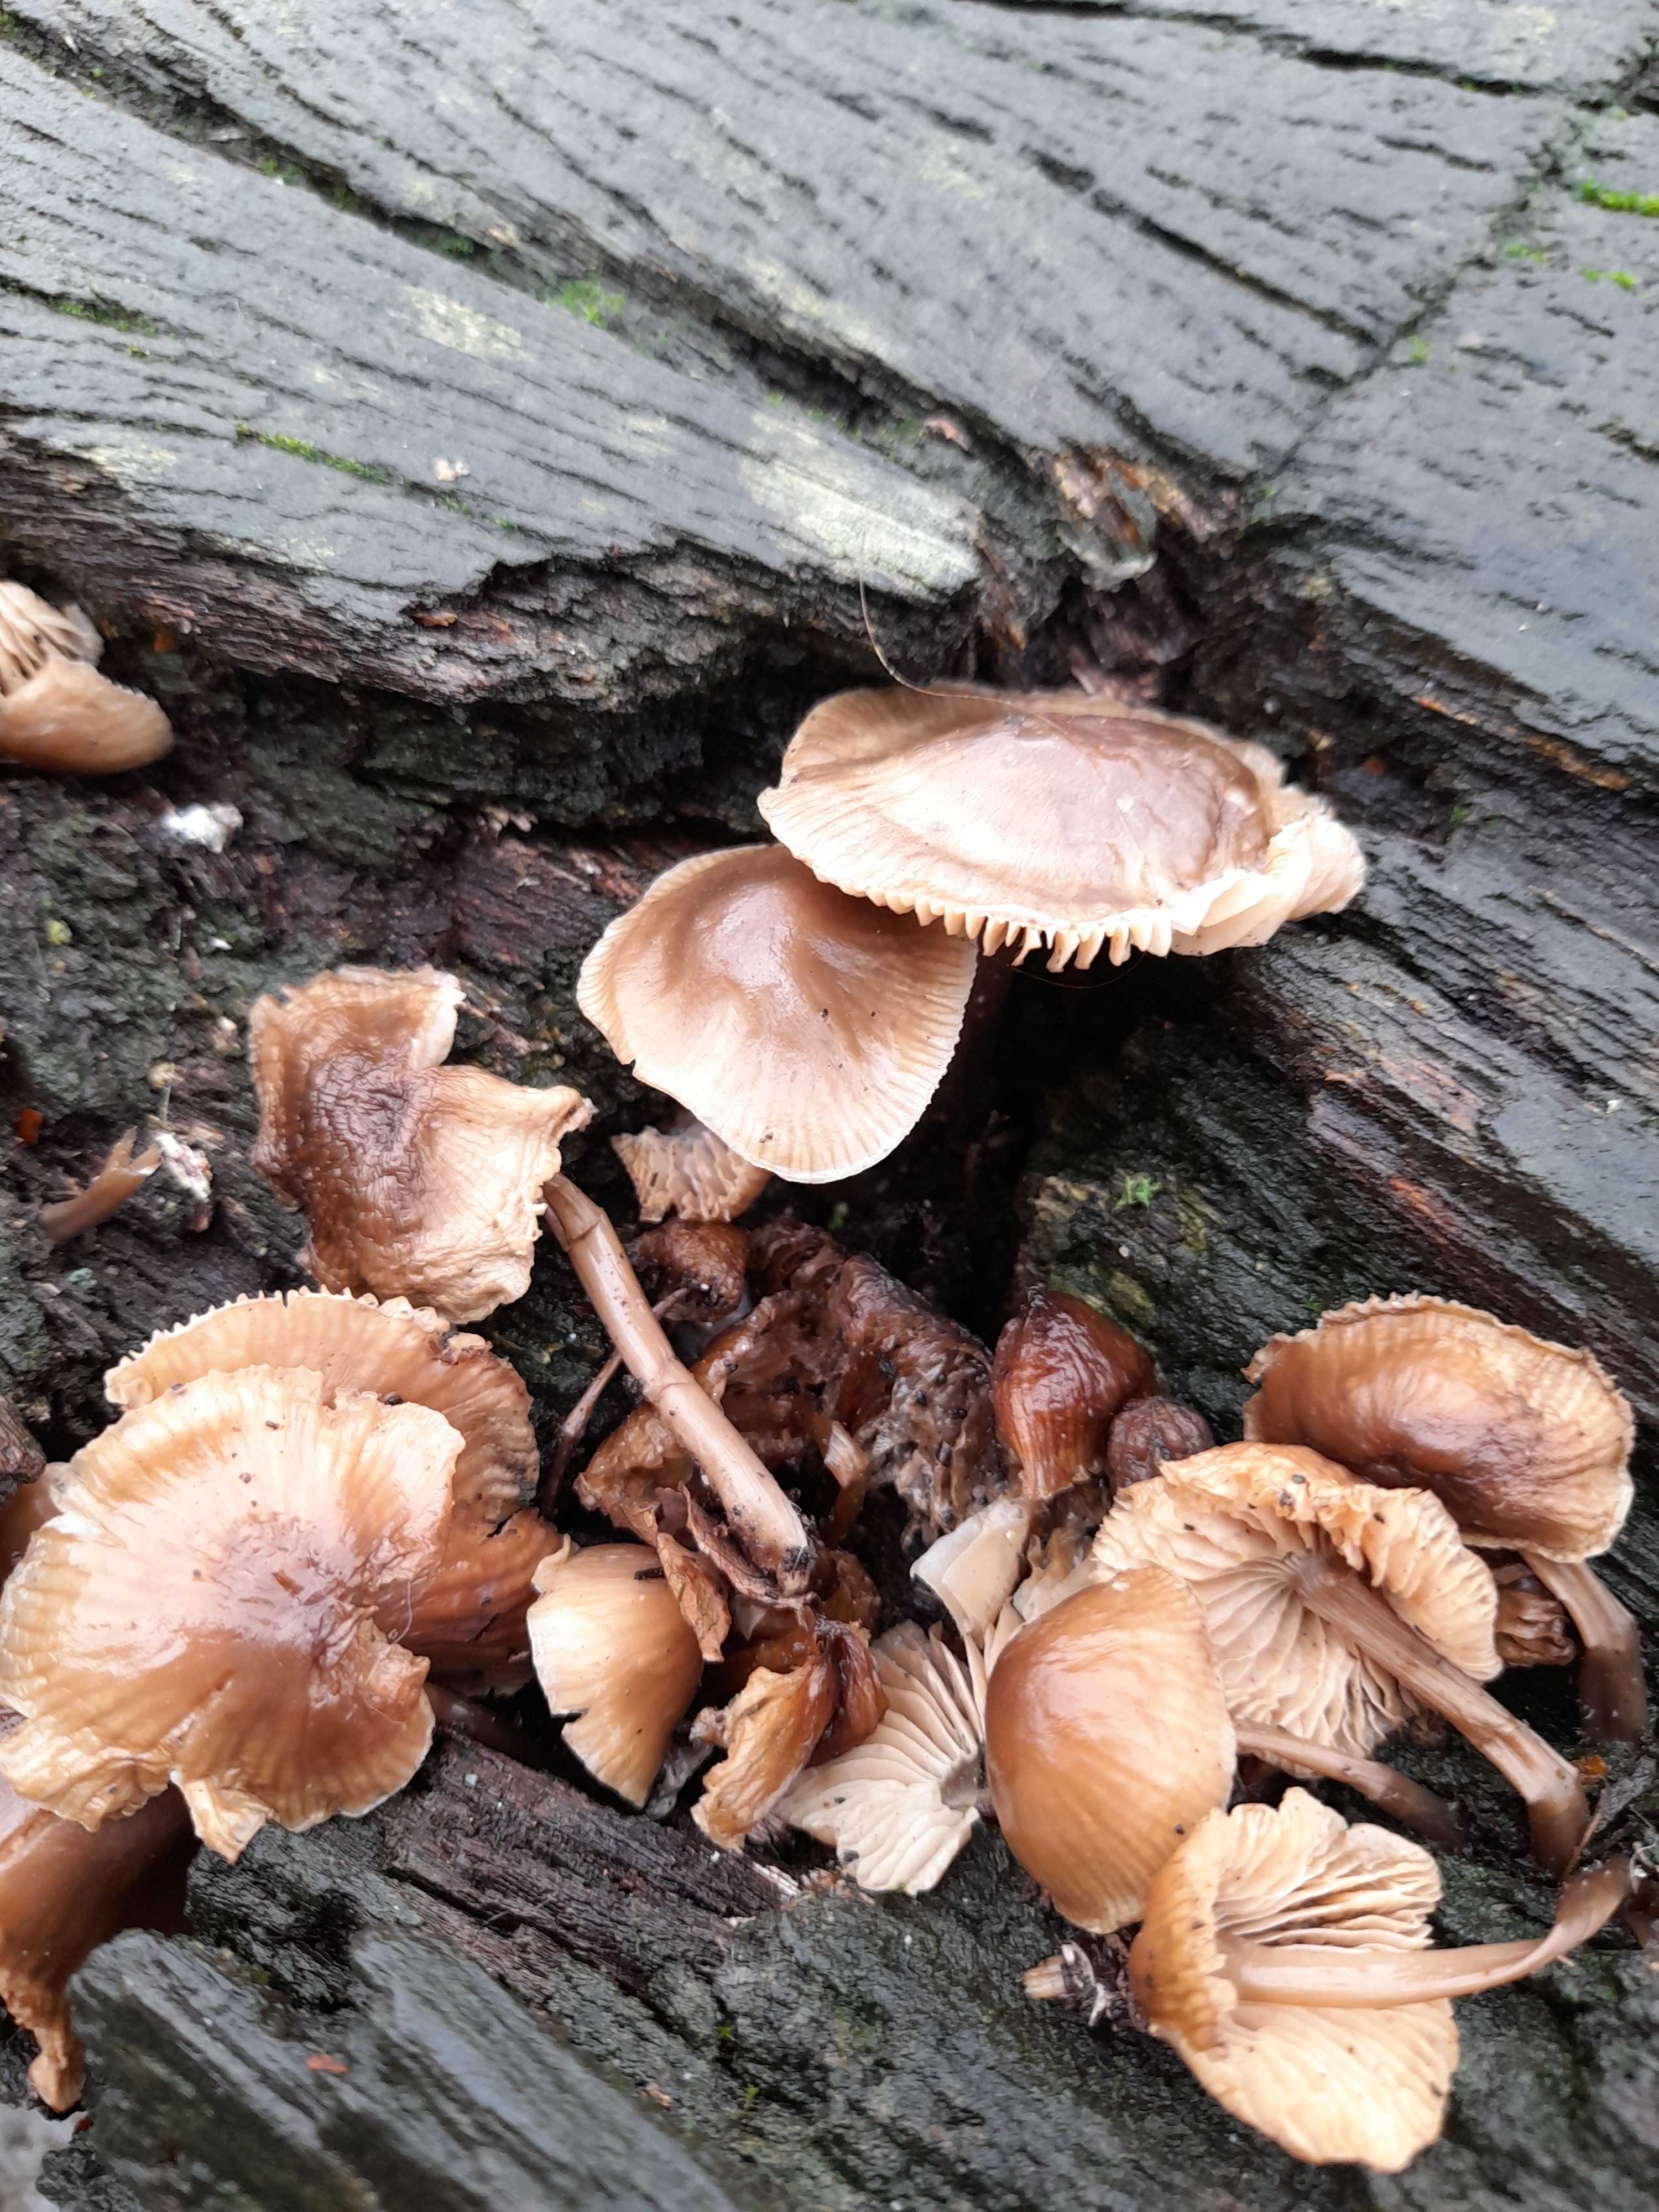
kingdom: Fungi
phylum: Basidiomycota
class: Agaricomycetes
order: Agaricales
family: Mycenaceae
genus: Mycena
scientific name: Mycena inclinata
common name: nikkende huesvamp
